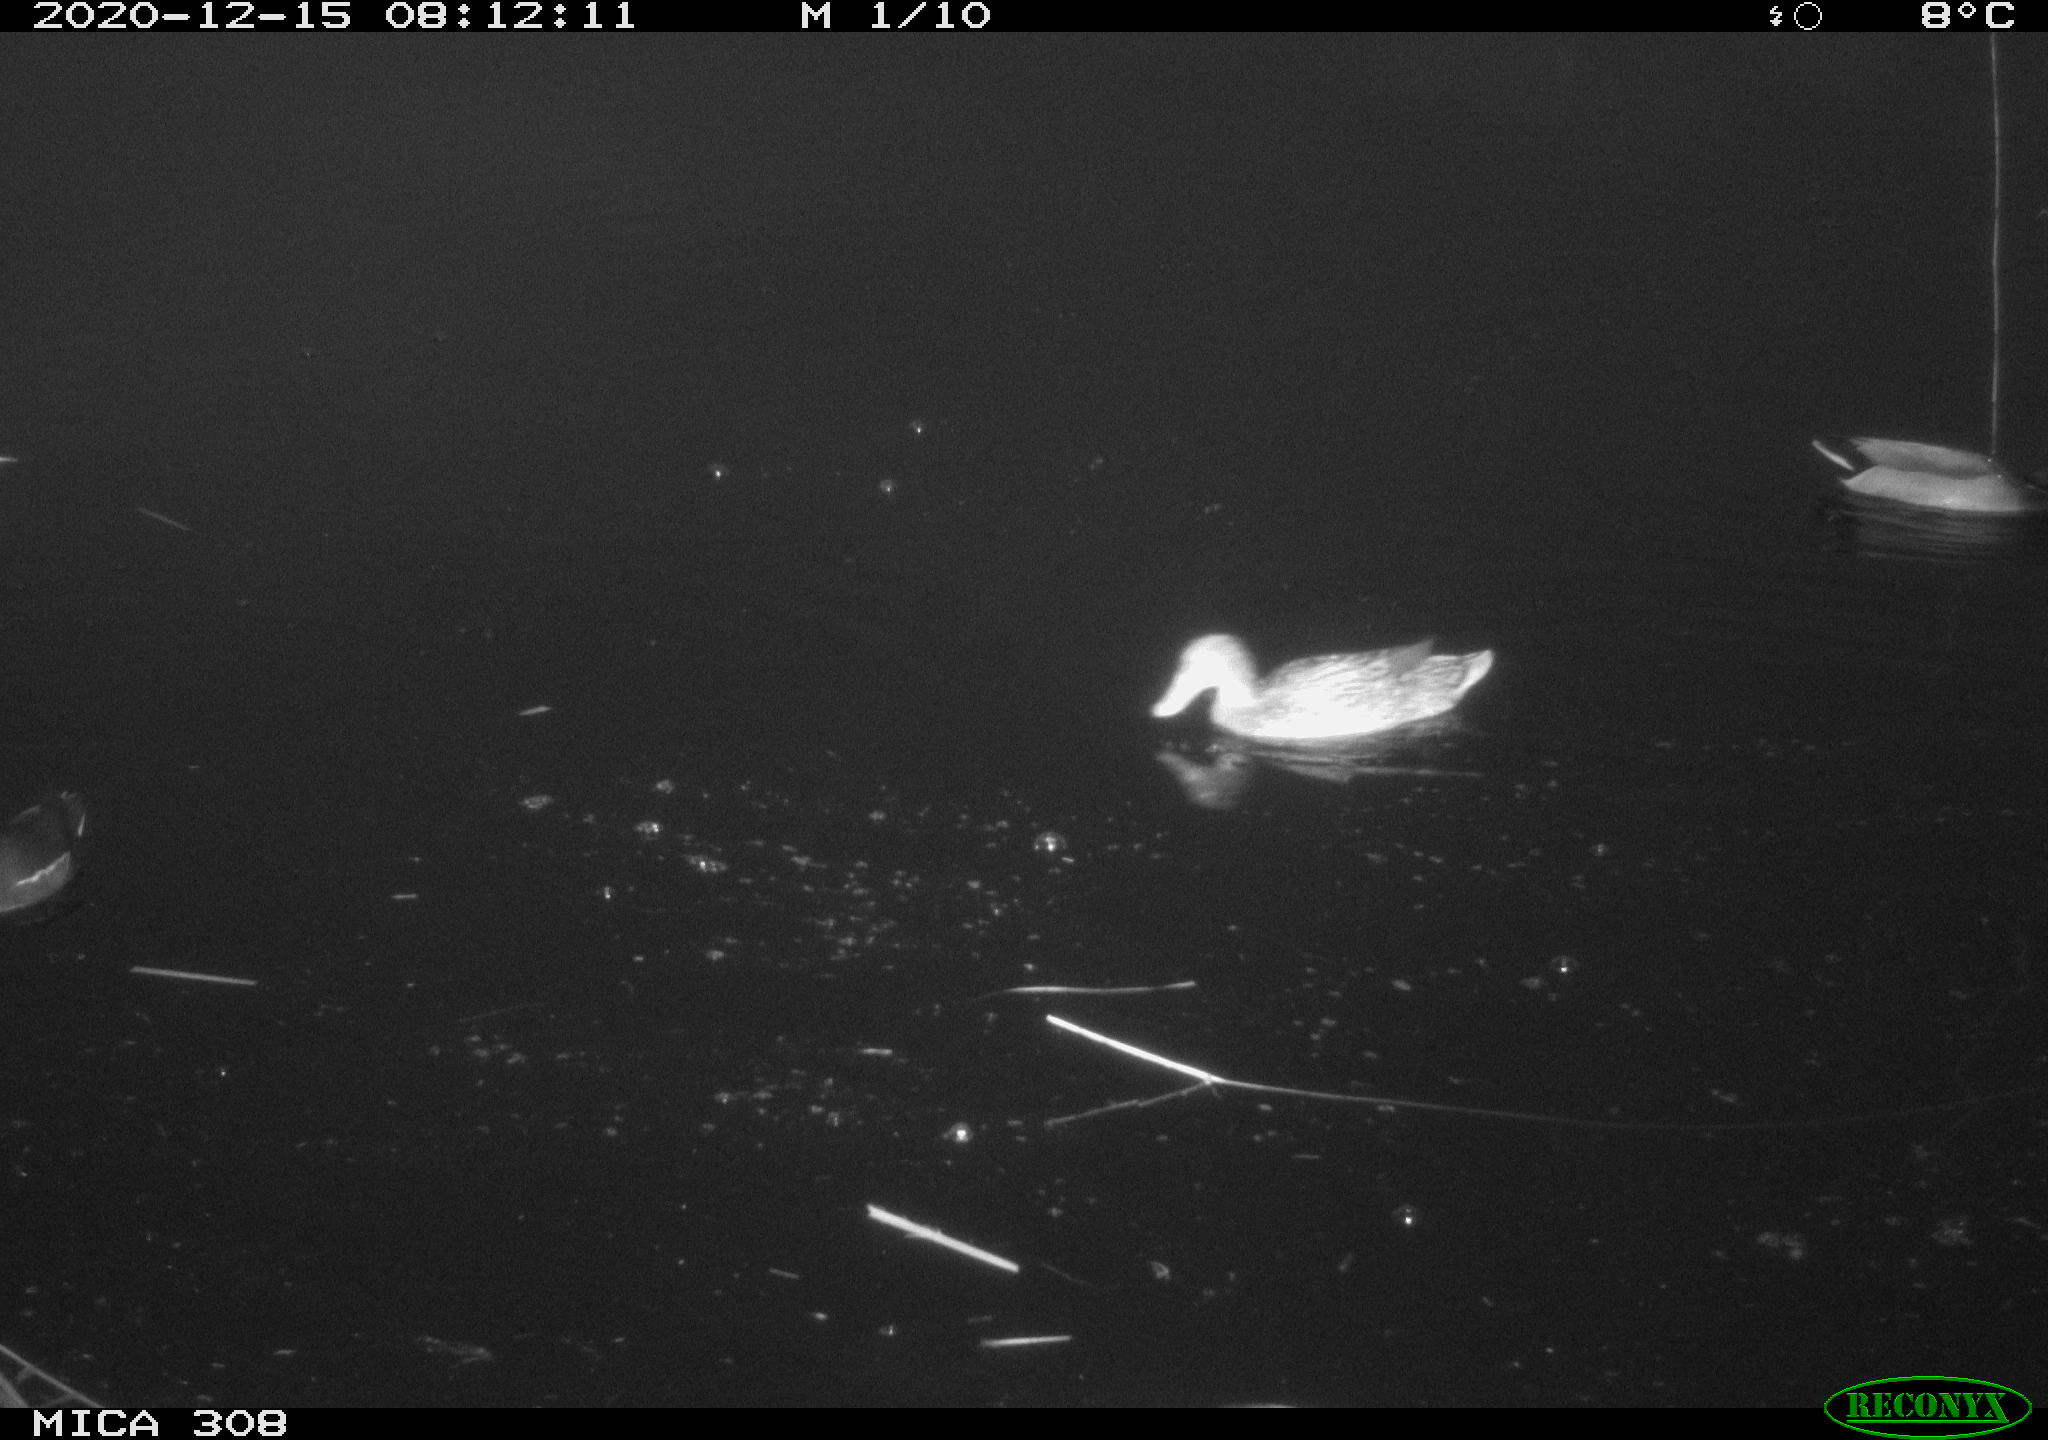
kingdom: Animalia
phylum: Chordata
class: Aves
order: Gruiformes
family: Rallidae
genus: Gallinula
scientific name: Gallinula chloropus
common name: Common moorhen
